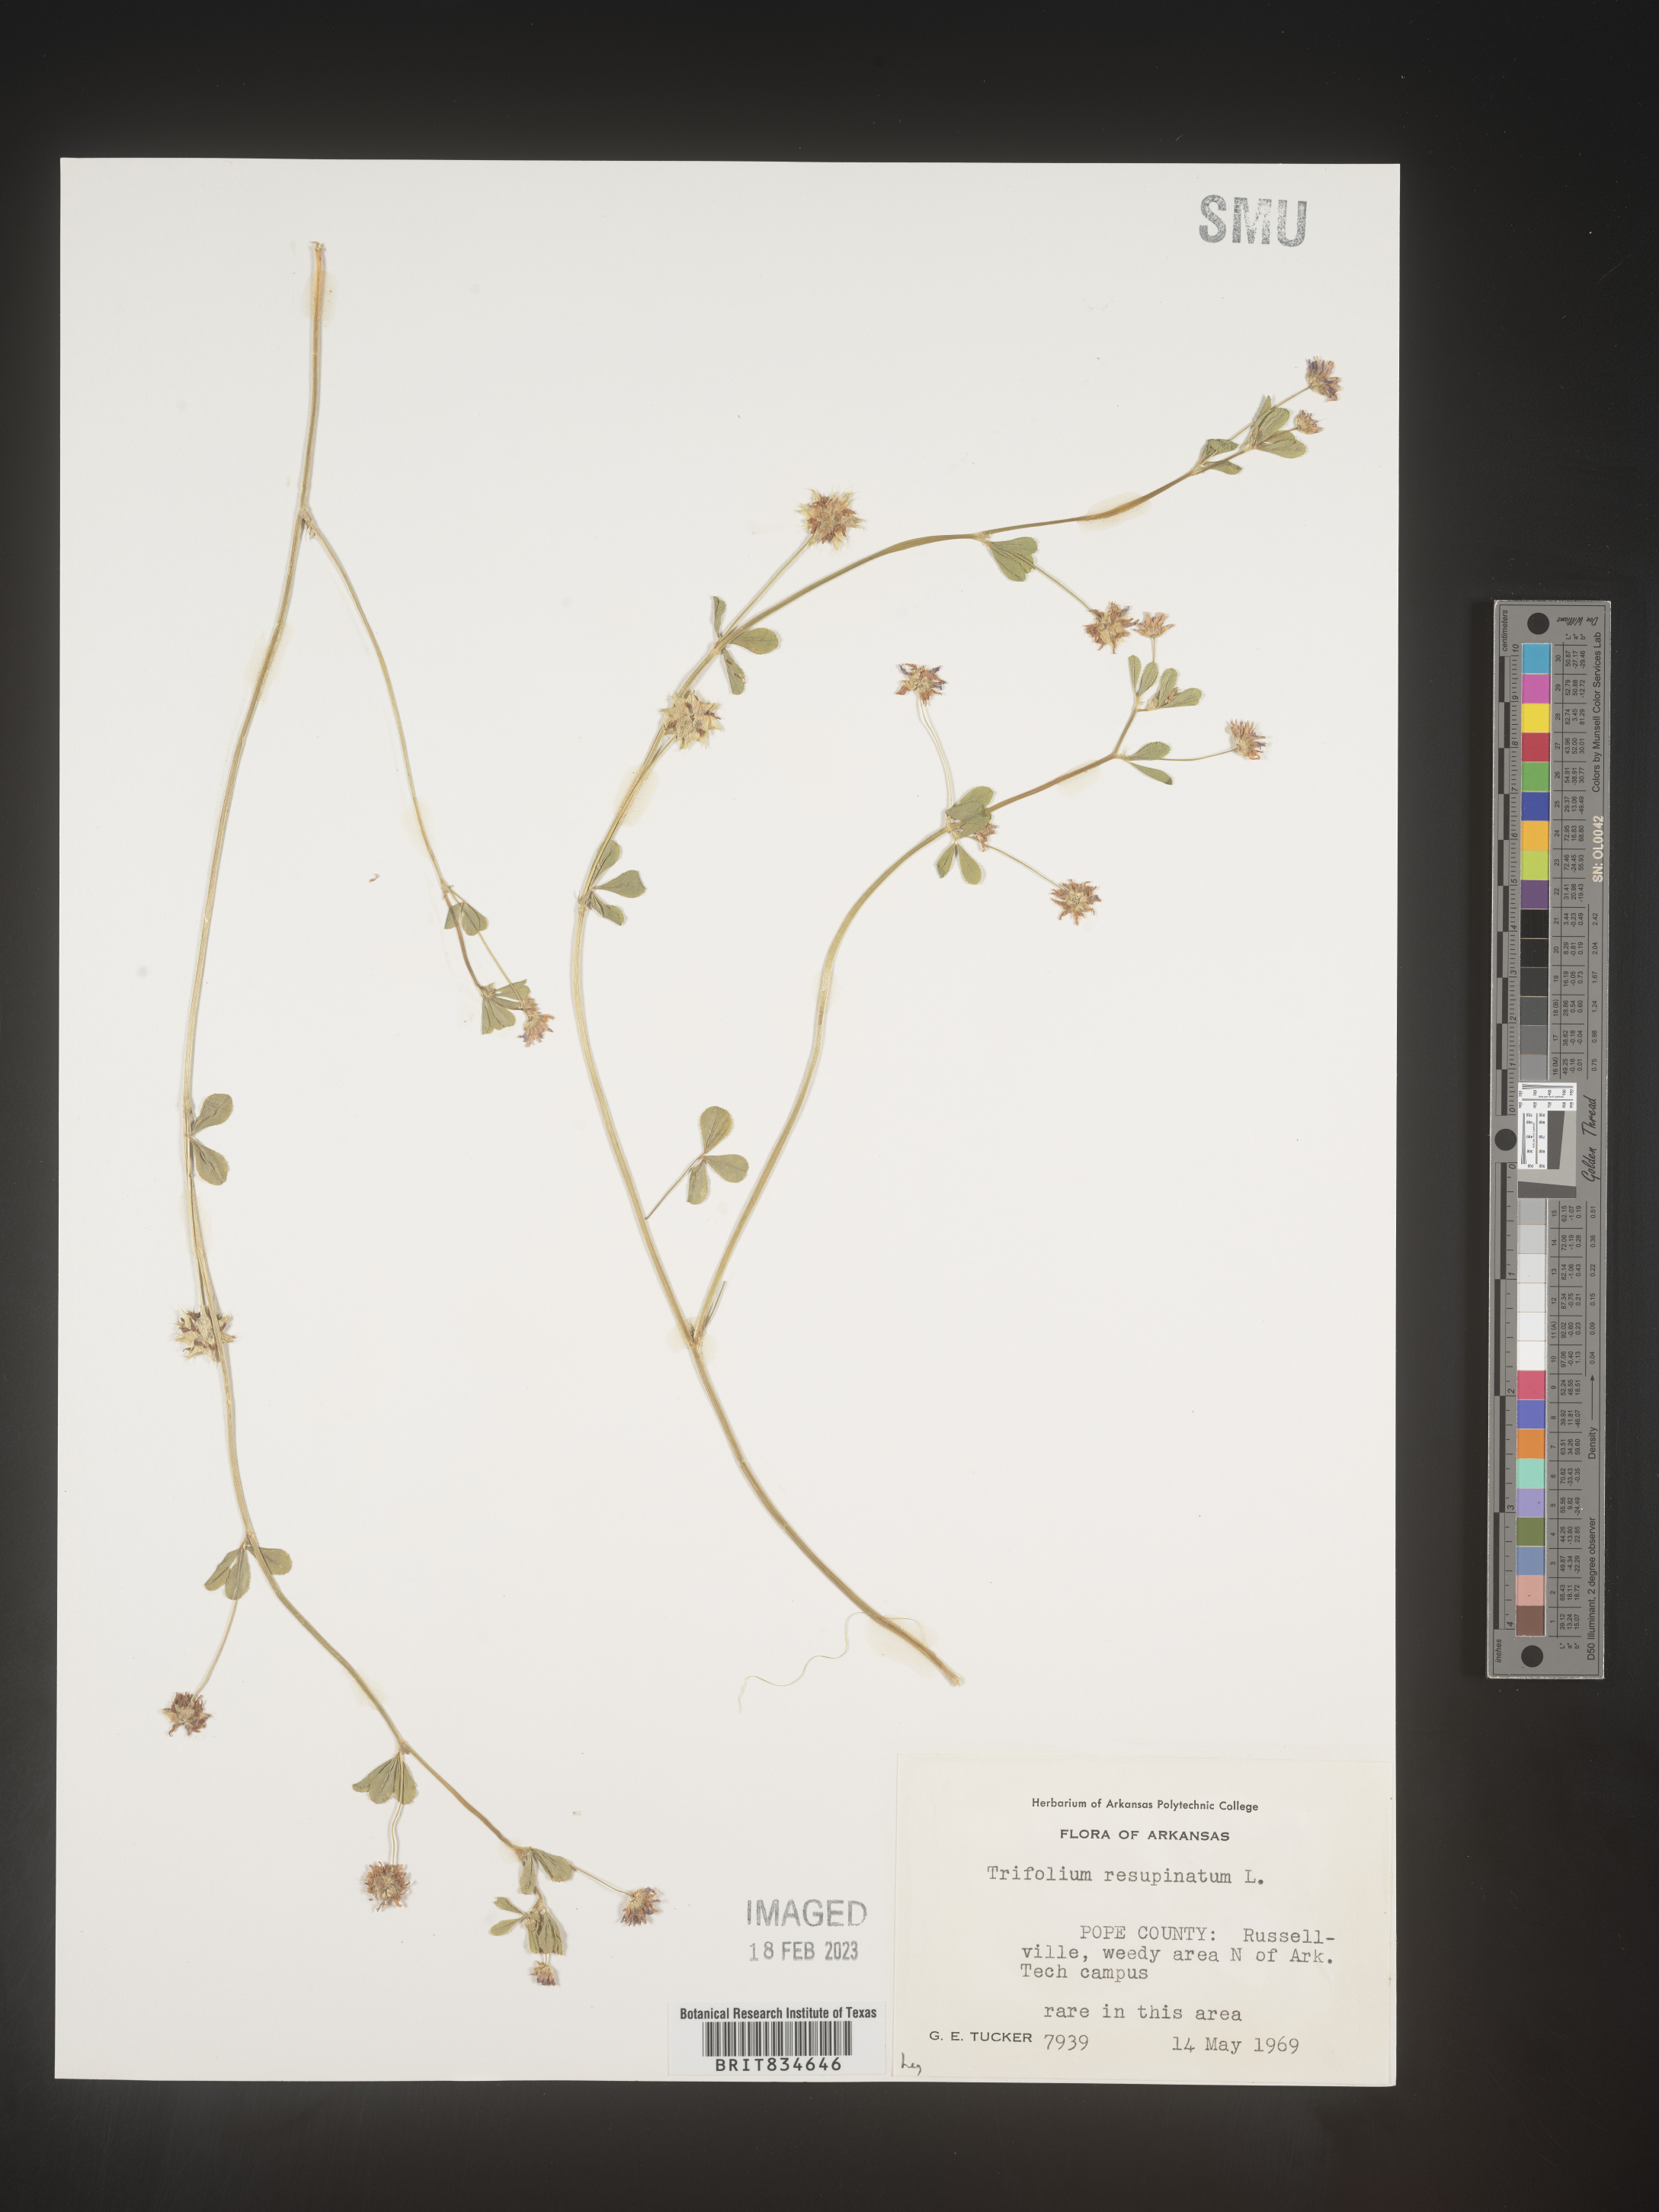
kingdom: Plantae
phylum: Tracheophyta
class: Magnoliopsida
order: Fabales
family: Fabaceae
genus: Trifolium
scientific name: Trifolium resupinatum
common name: Reversed clover
